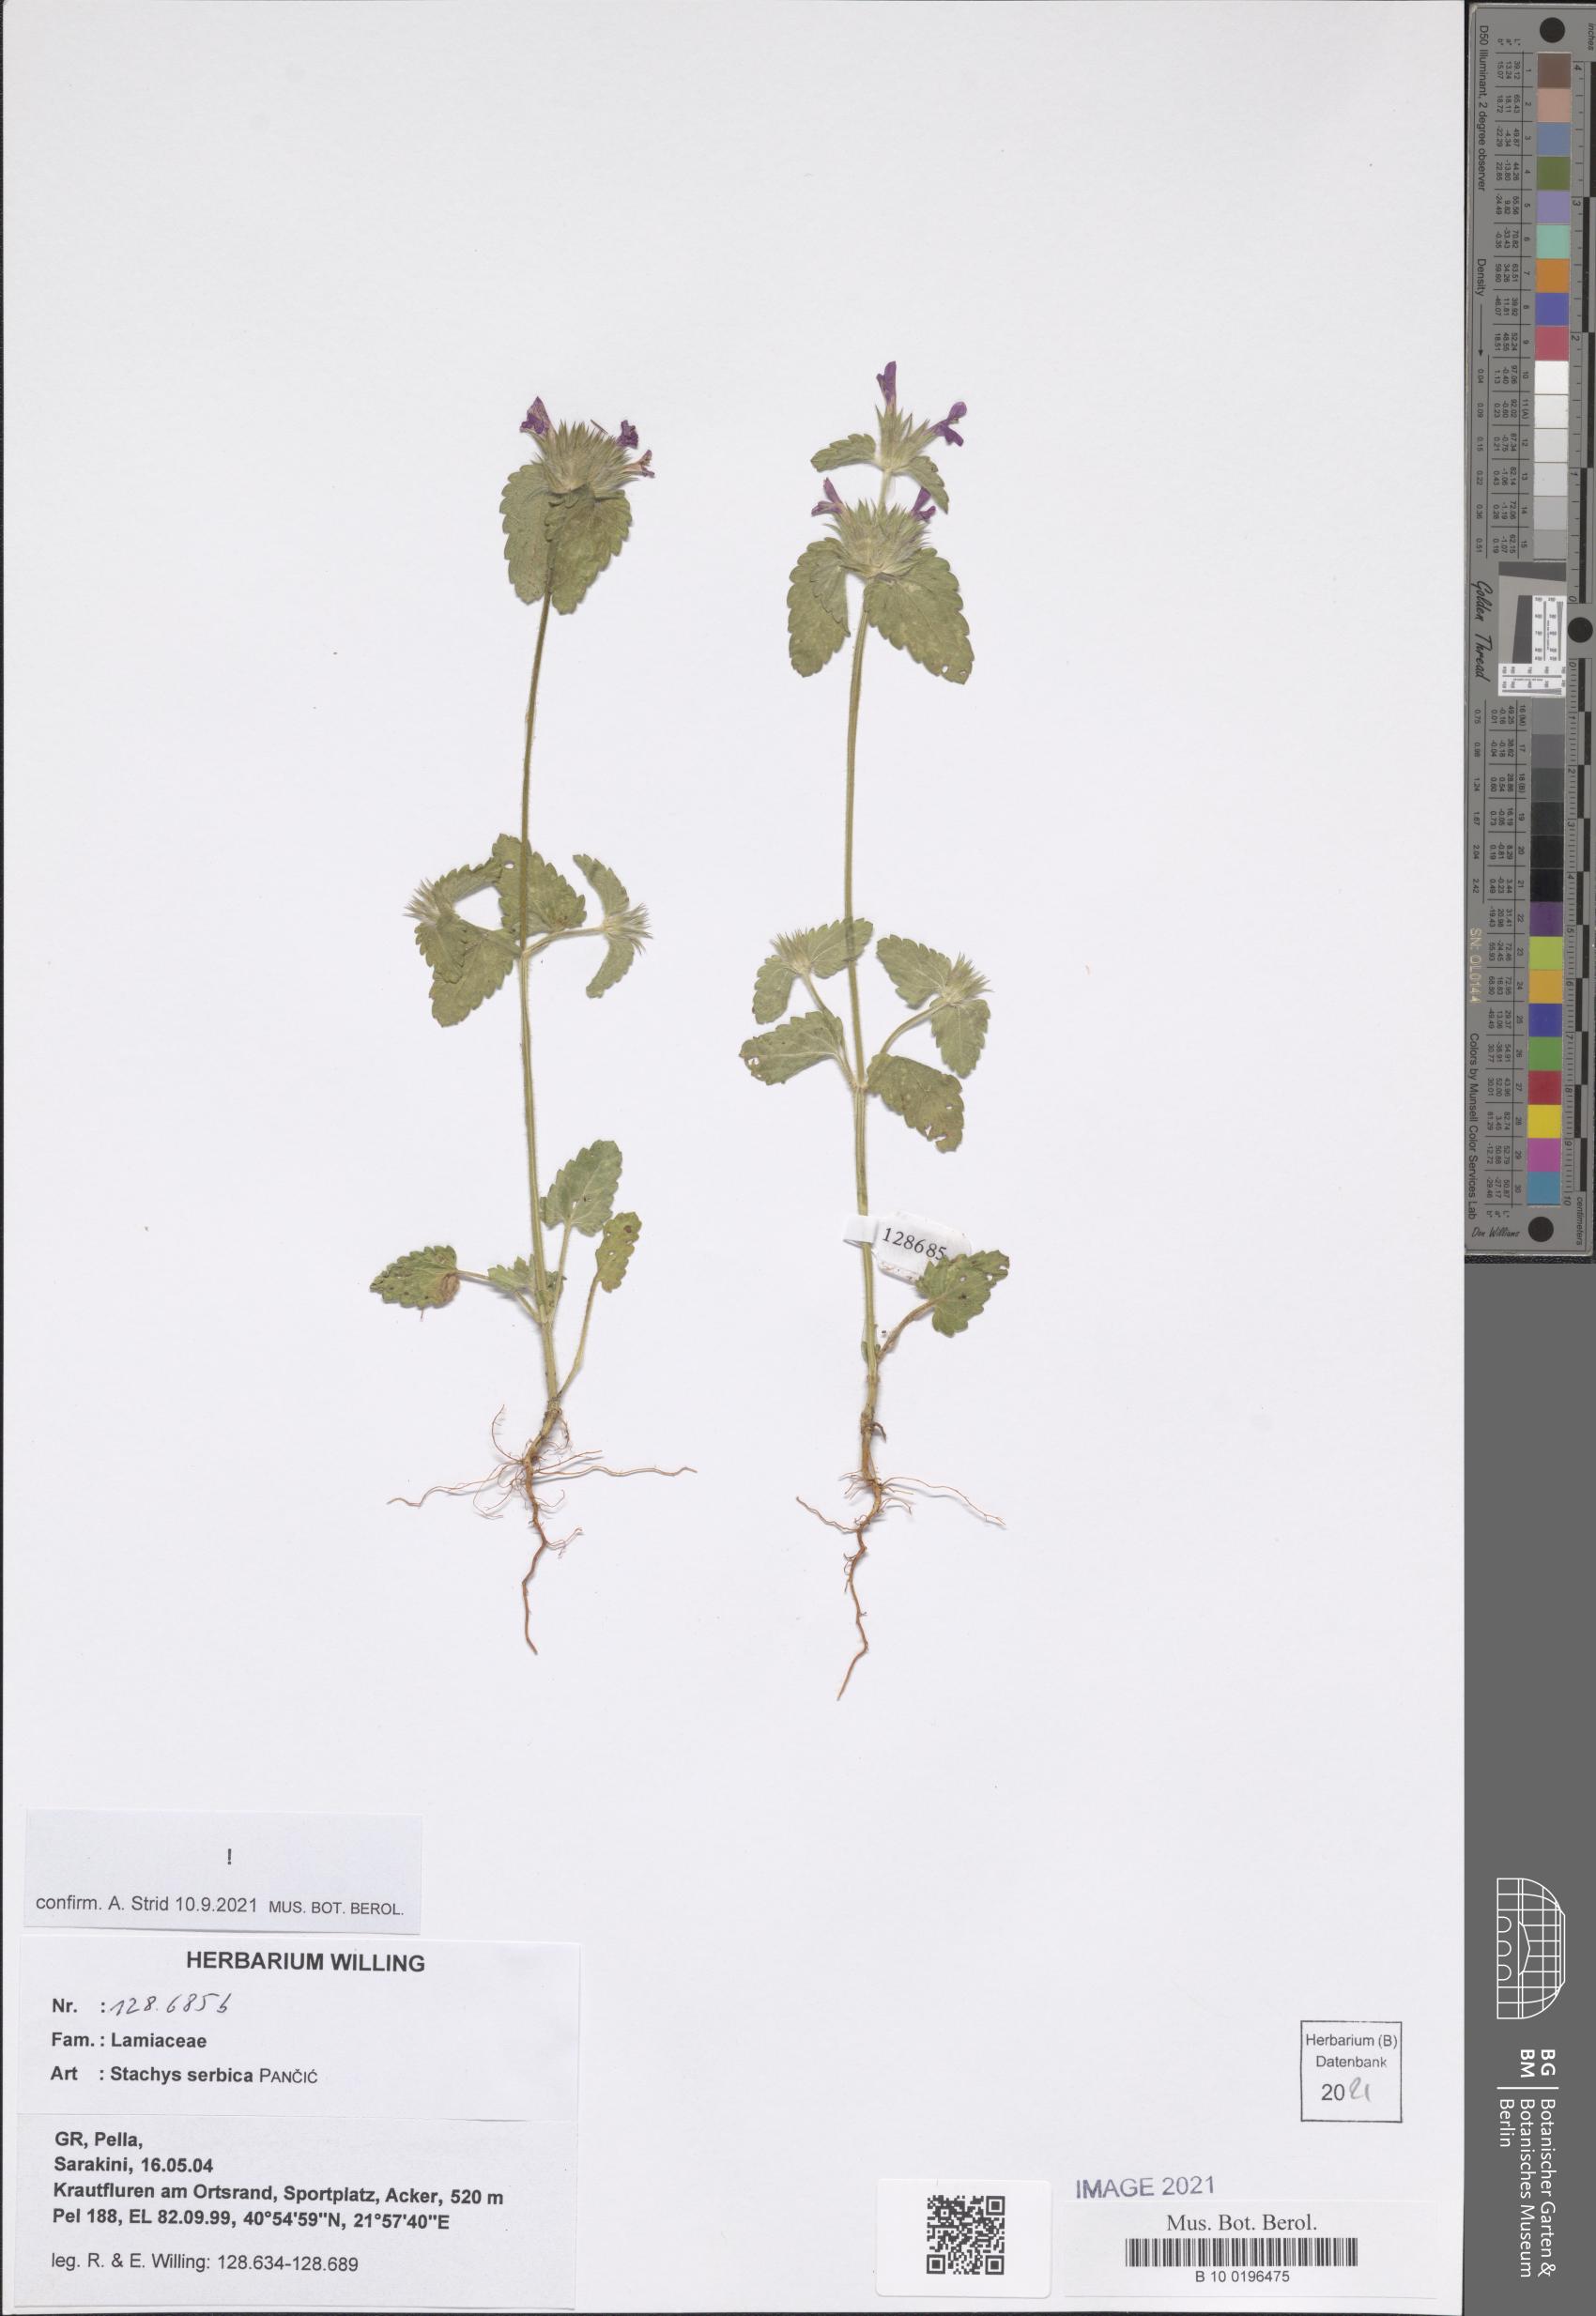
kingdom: Plantae
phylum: Tracheophyta
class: Magnoliopsida
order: Lamiales
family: Lamiaceae
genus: Stachys
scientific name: Stachys serbica
